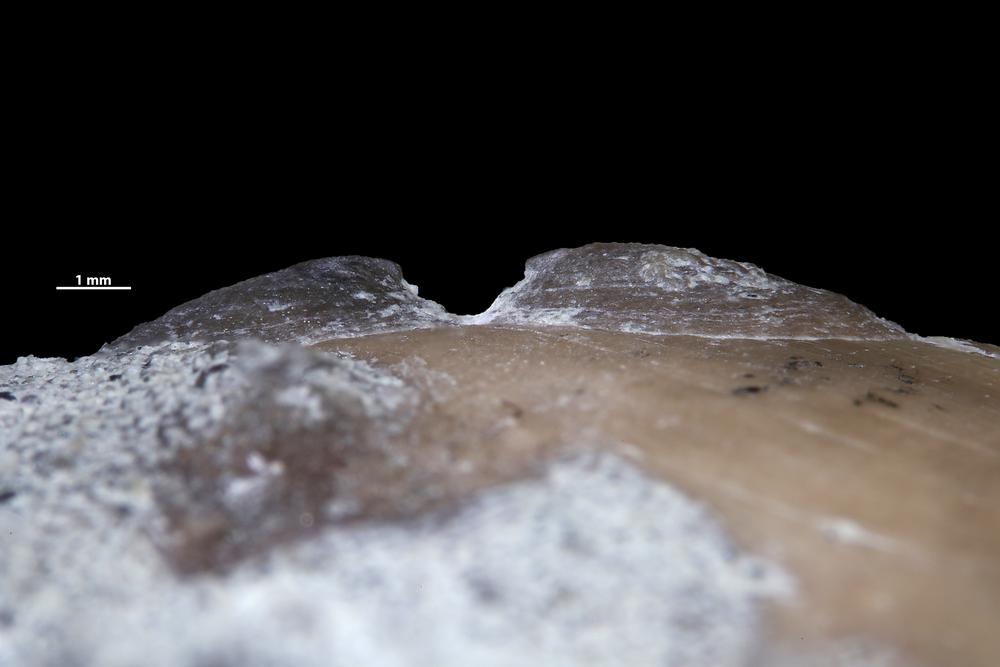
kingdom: Animalia
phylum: Brachiopoda
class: Craniata
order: Craniida
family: Craniidae
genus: Petrocrania
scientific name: Petrocrania
